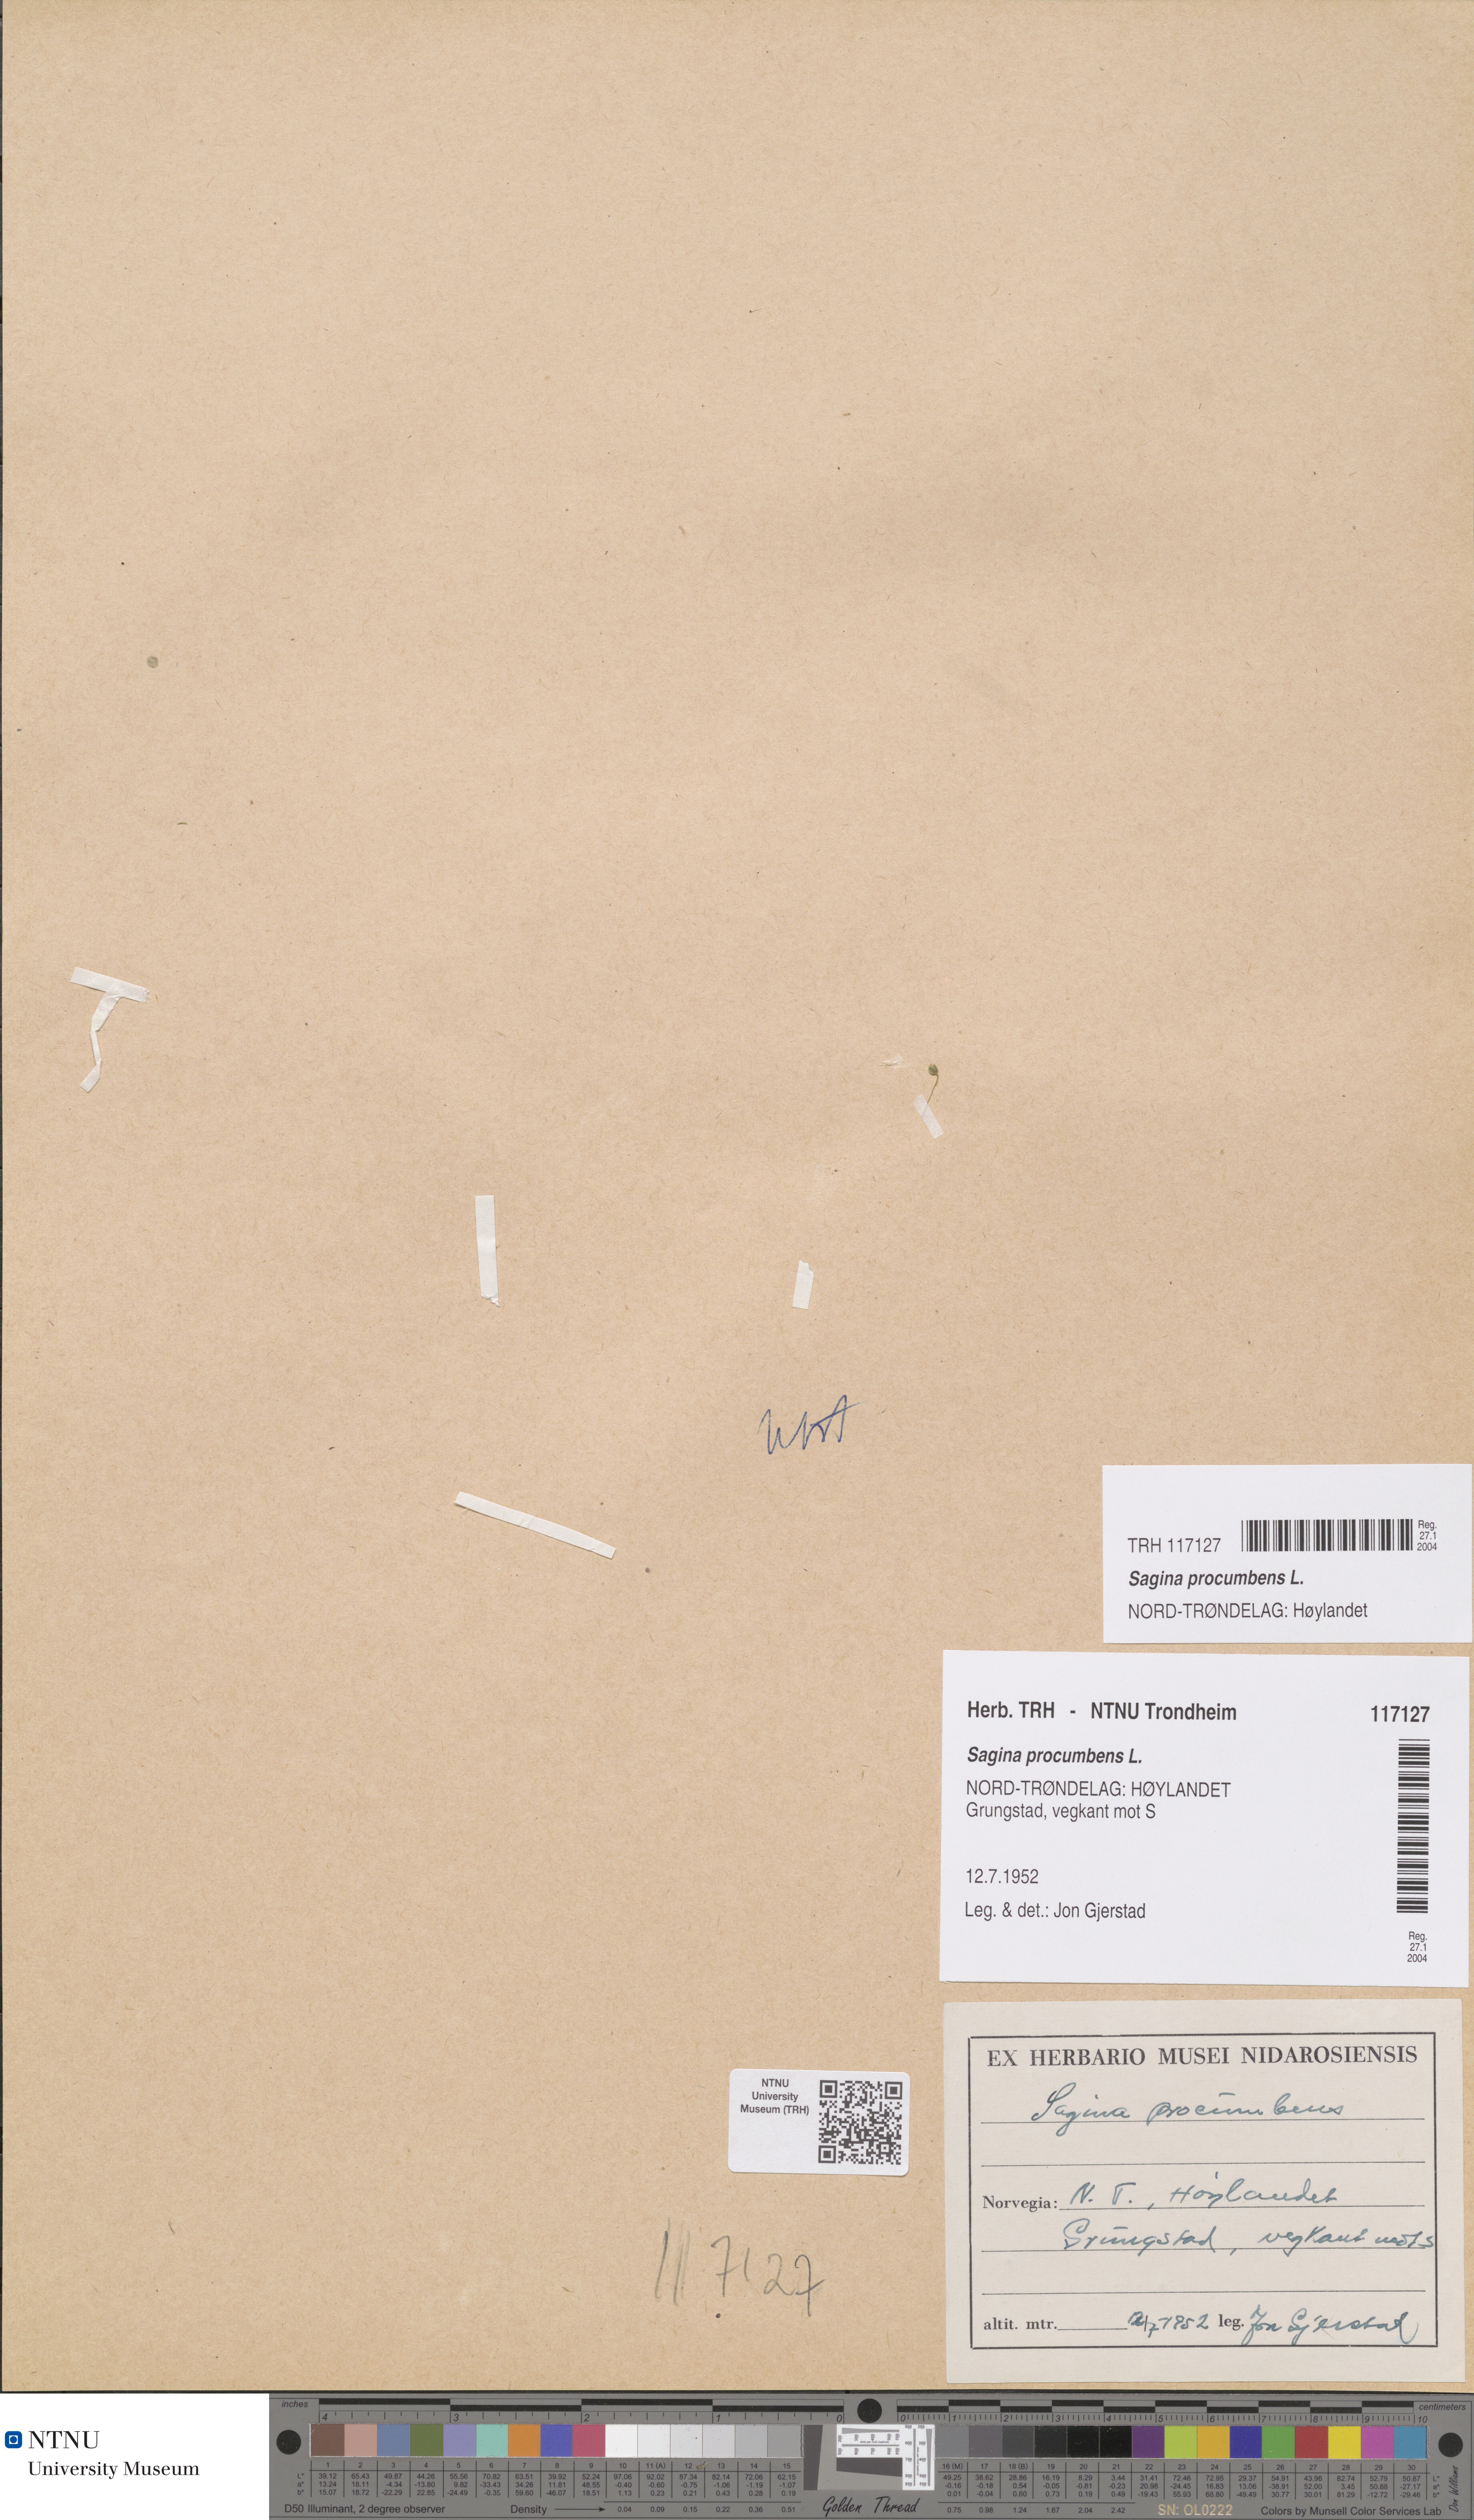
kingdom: Plantae
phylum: Tracheophyta
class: Magnoliopsida
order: Caryophyllales
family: Caryophyllaceae
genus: Sagina
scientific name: Sagina procumbens
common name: Procumbent pearlwort
